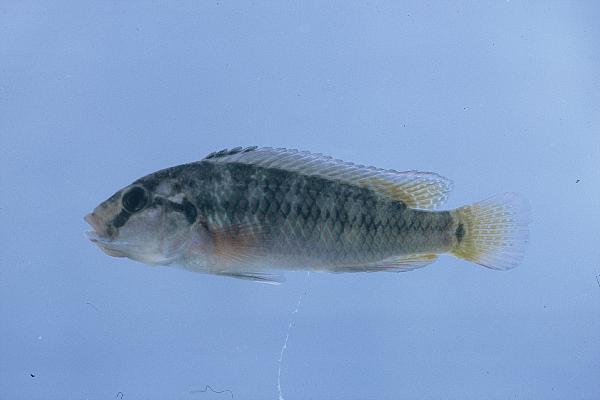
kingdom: Animalia
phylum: Chordata
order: Perciformes
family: Cichlidae
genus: Orthochromis
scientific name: Orthochromis machadoi
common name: Cunene dwarf happy
